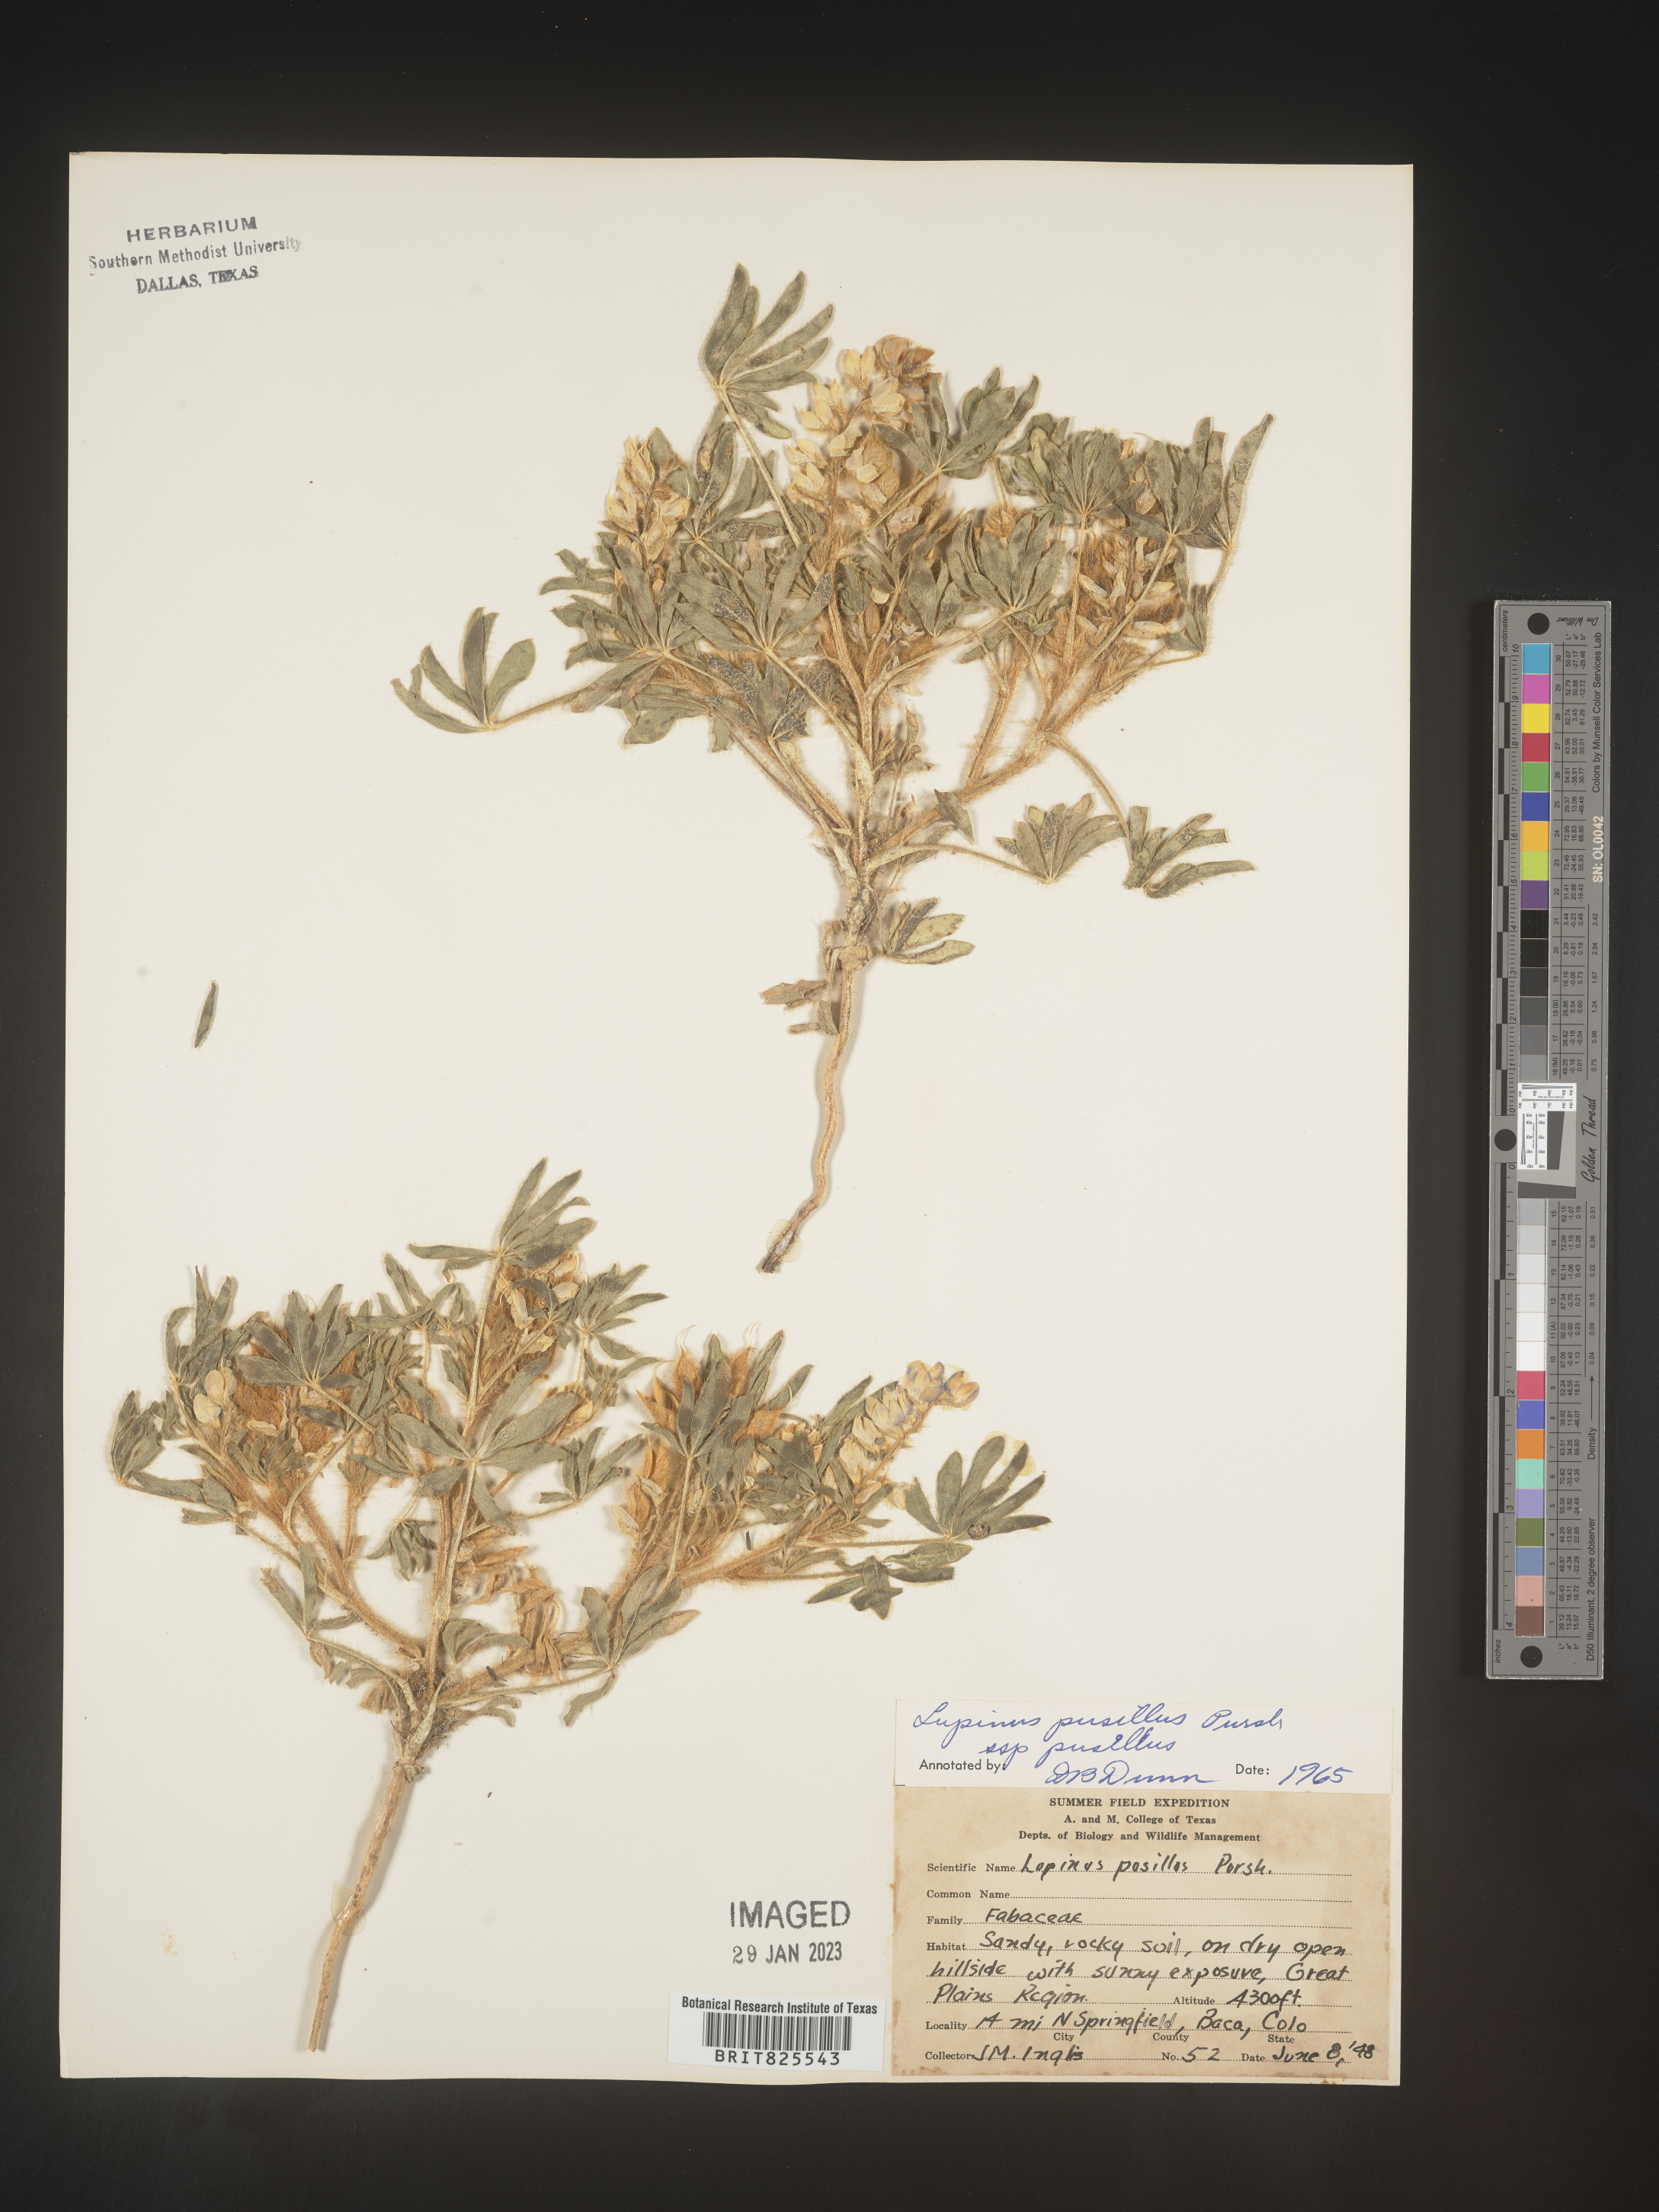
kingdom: Plantae
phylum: Tracheophyta
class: Magnoliopsida
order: Fabales
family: Fabaceae
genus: Lupinus
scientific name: Lupinus
